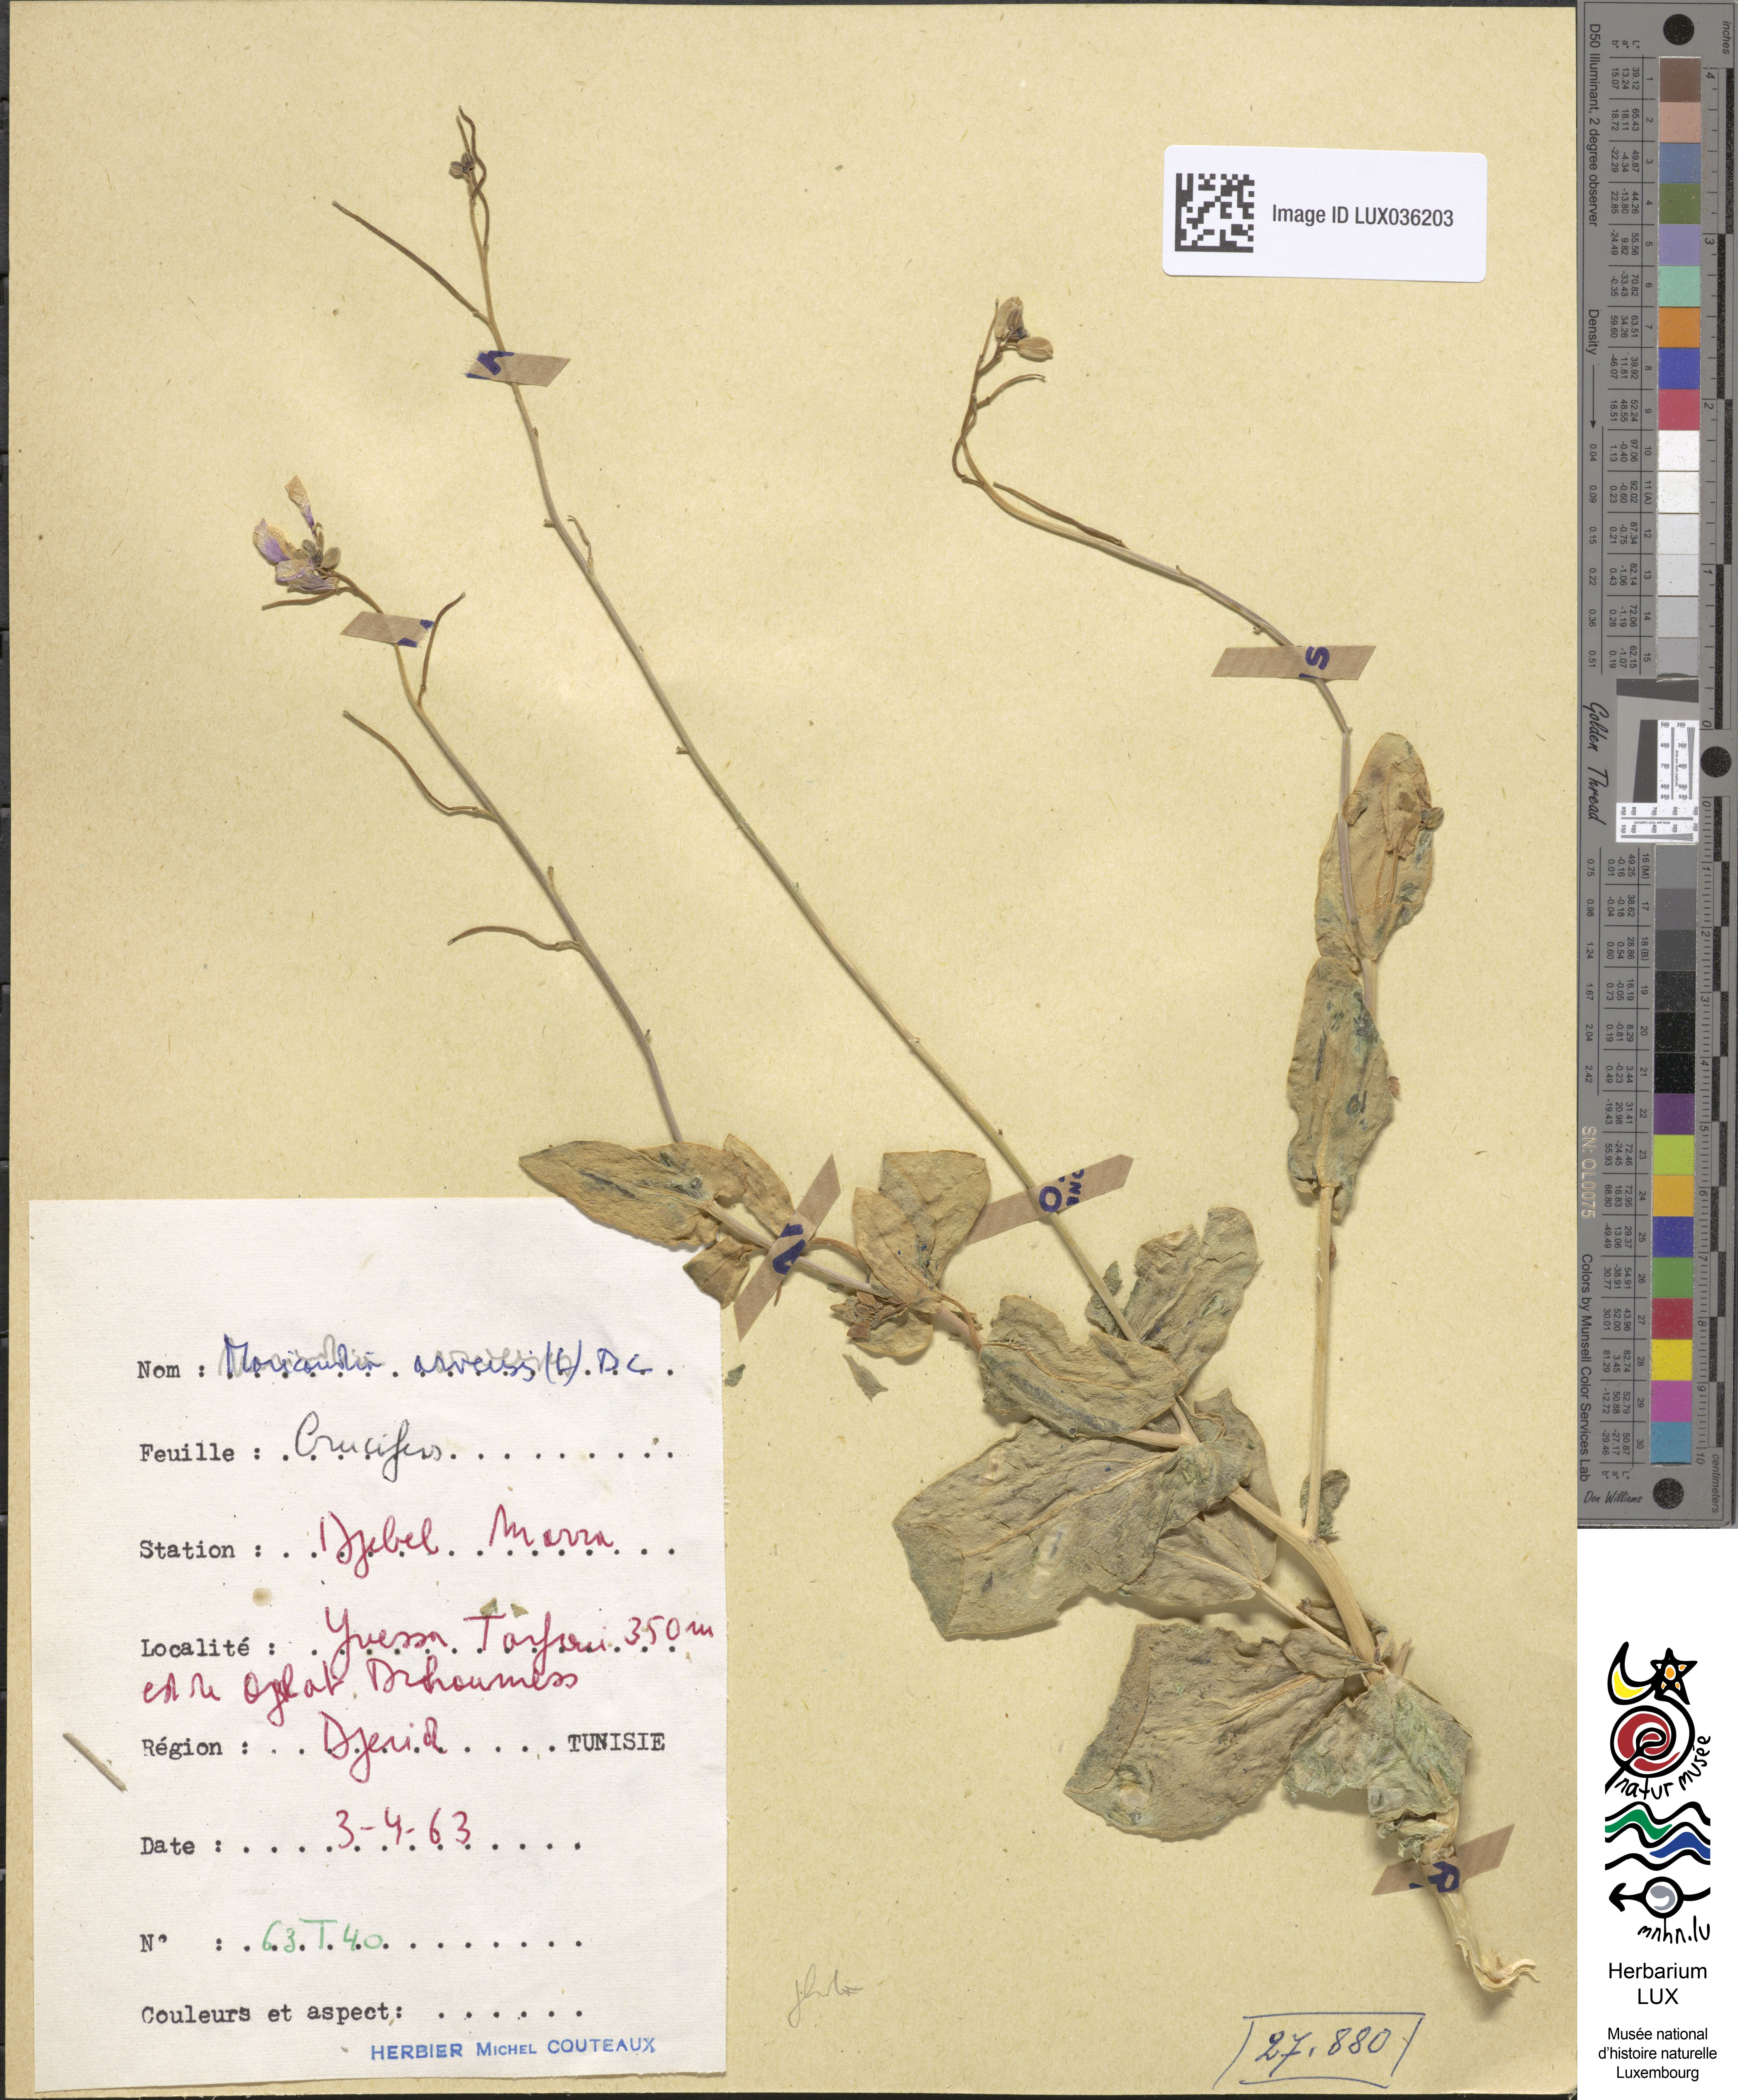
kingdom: Plantae
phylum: Tracheophyta
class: Magnoliopsida
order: Brassicales
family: Brassicaceae
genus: Moricandia
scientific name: Moricandia arvensis
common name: Purple mistress
